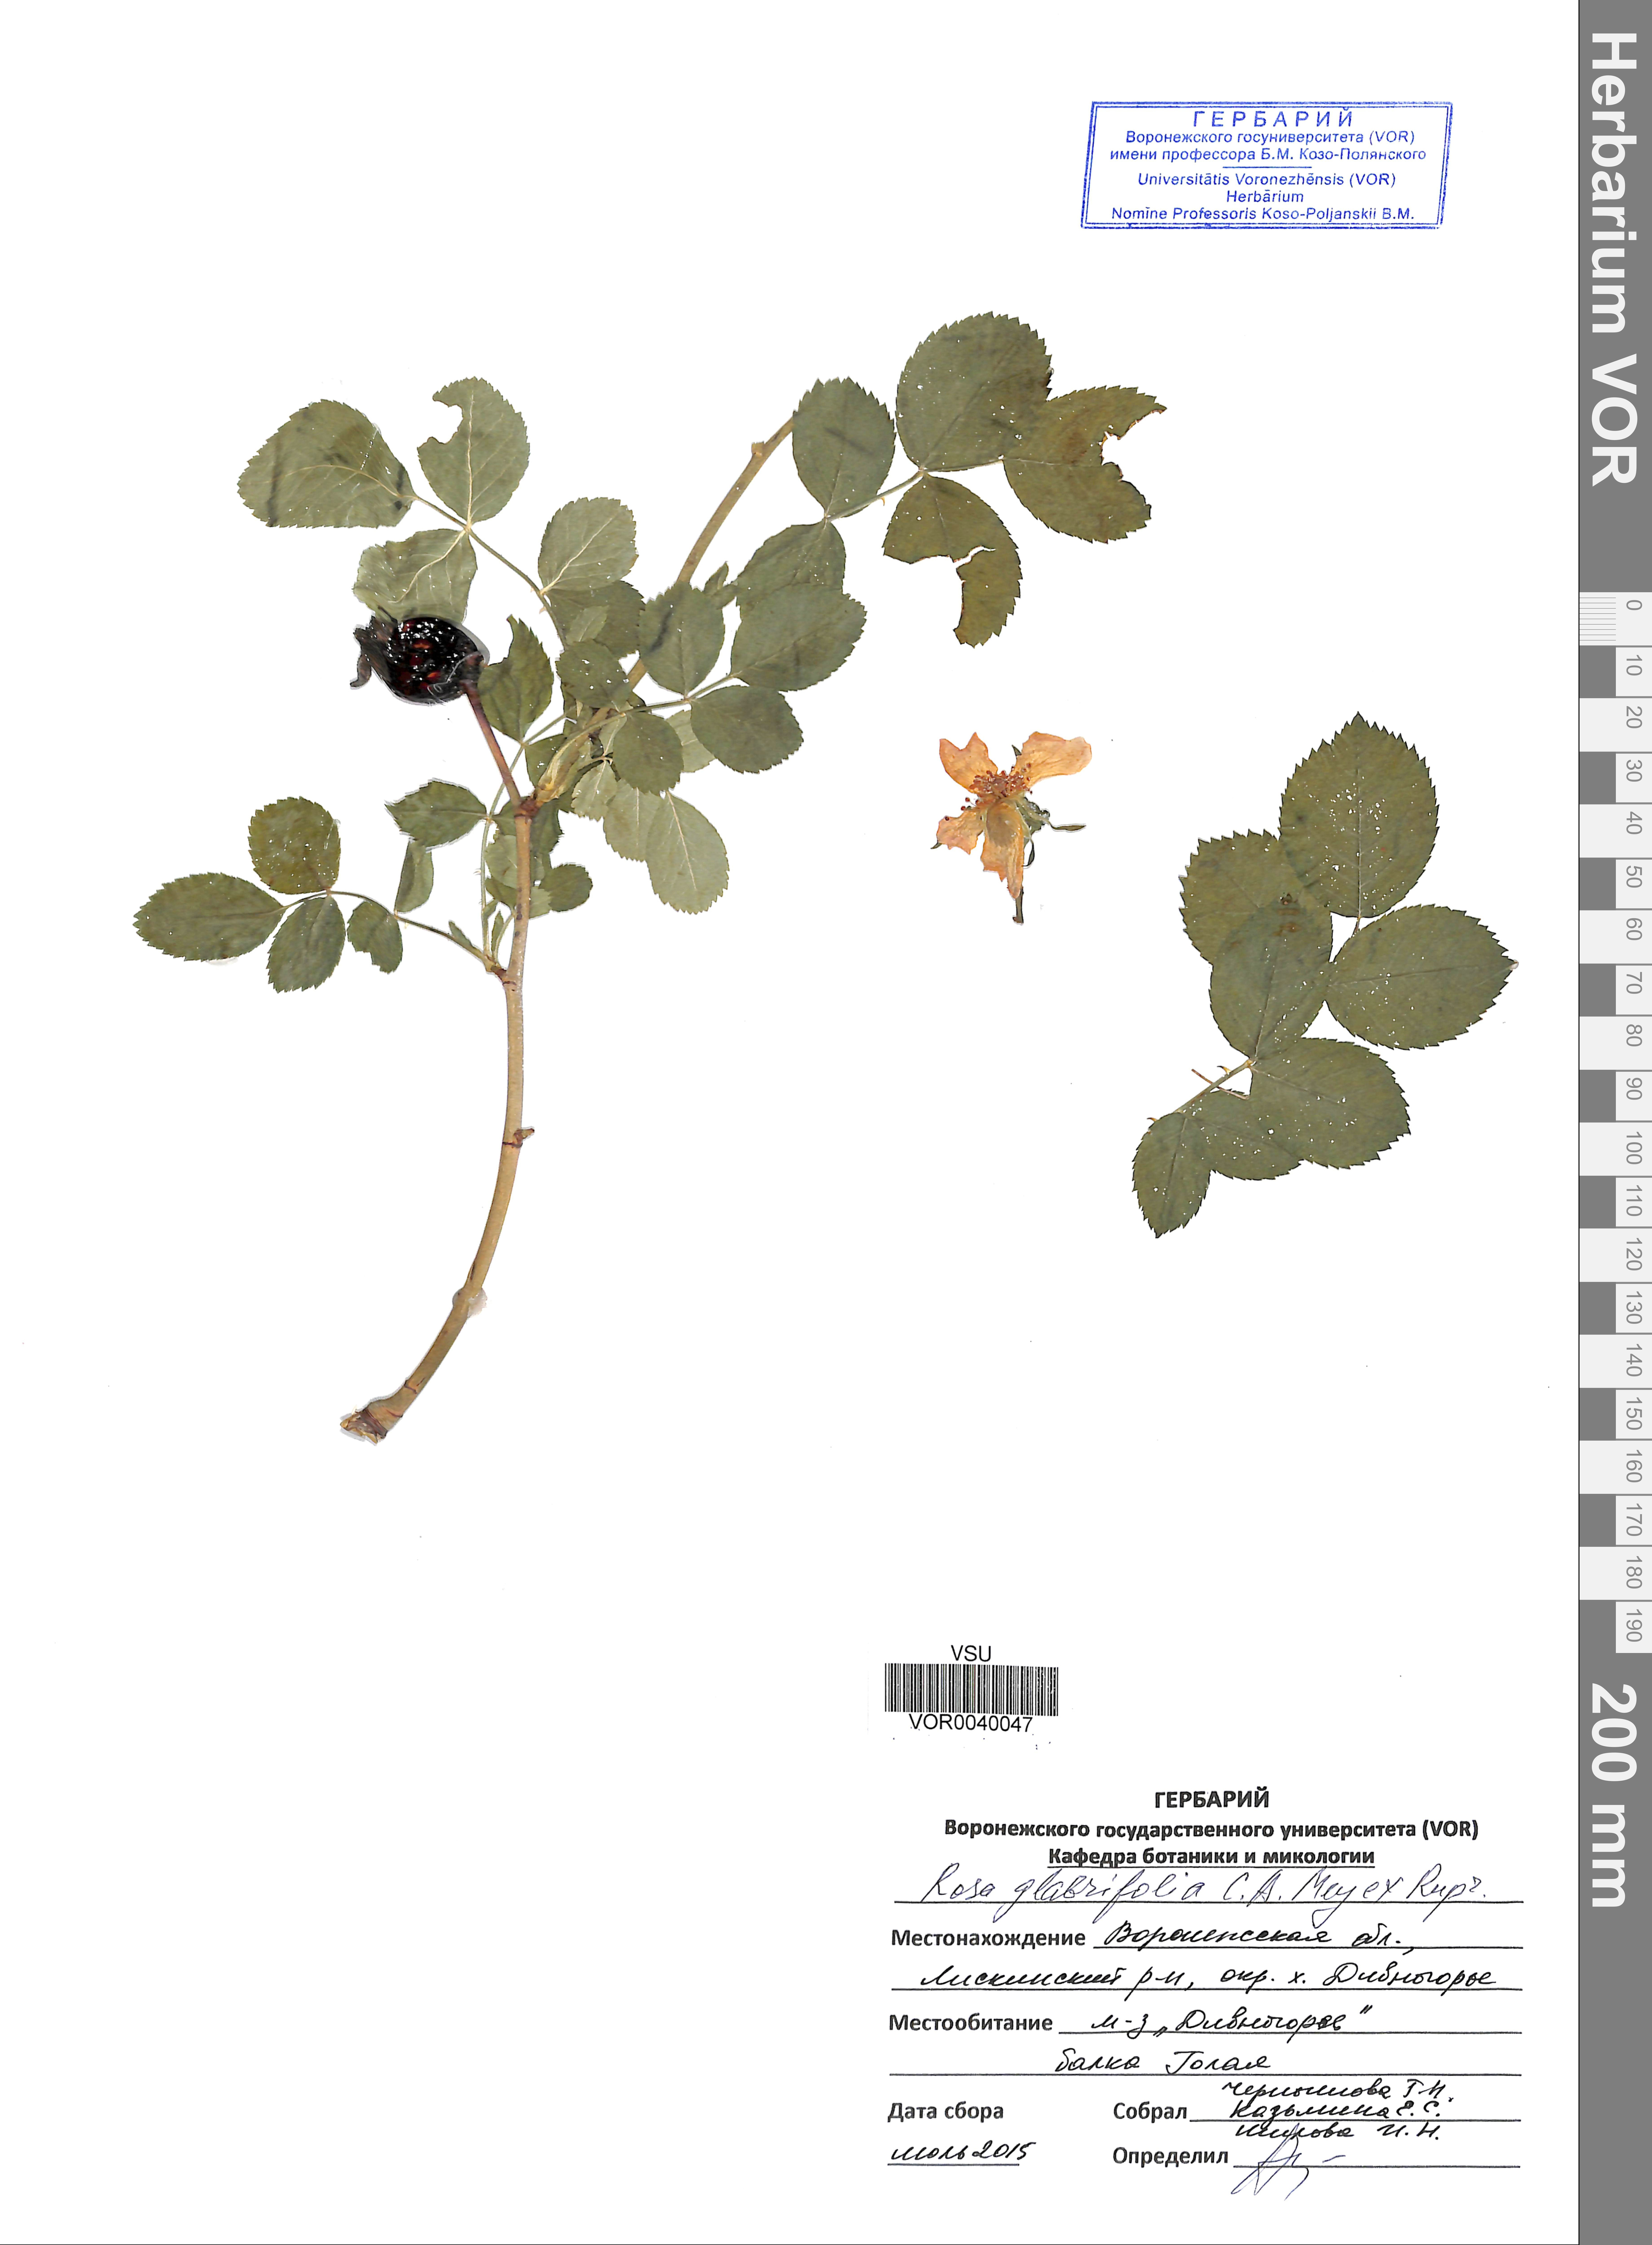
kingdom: Plantae
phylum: Tracheophyta
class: Magnoliopsida
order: Rosales
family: Rosaceae
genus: Rosa
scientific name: Rosa glabrifolia
